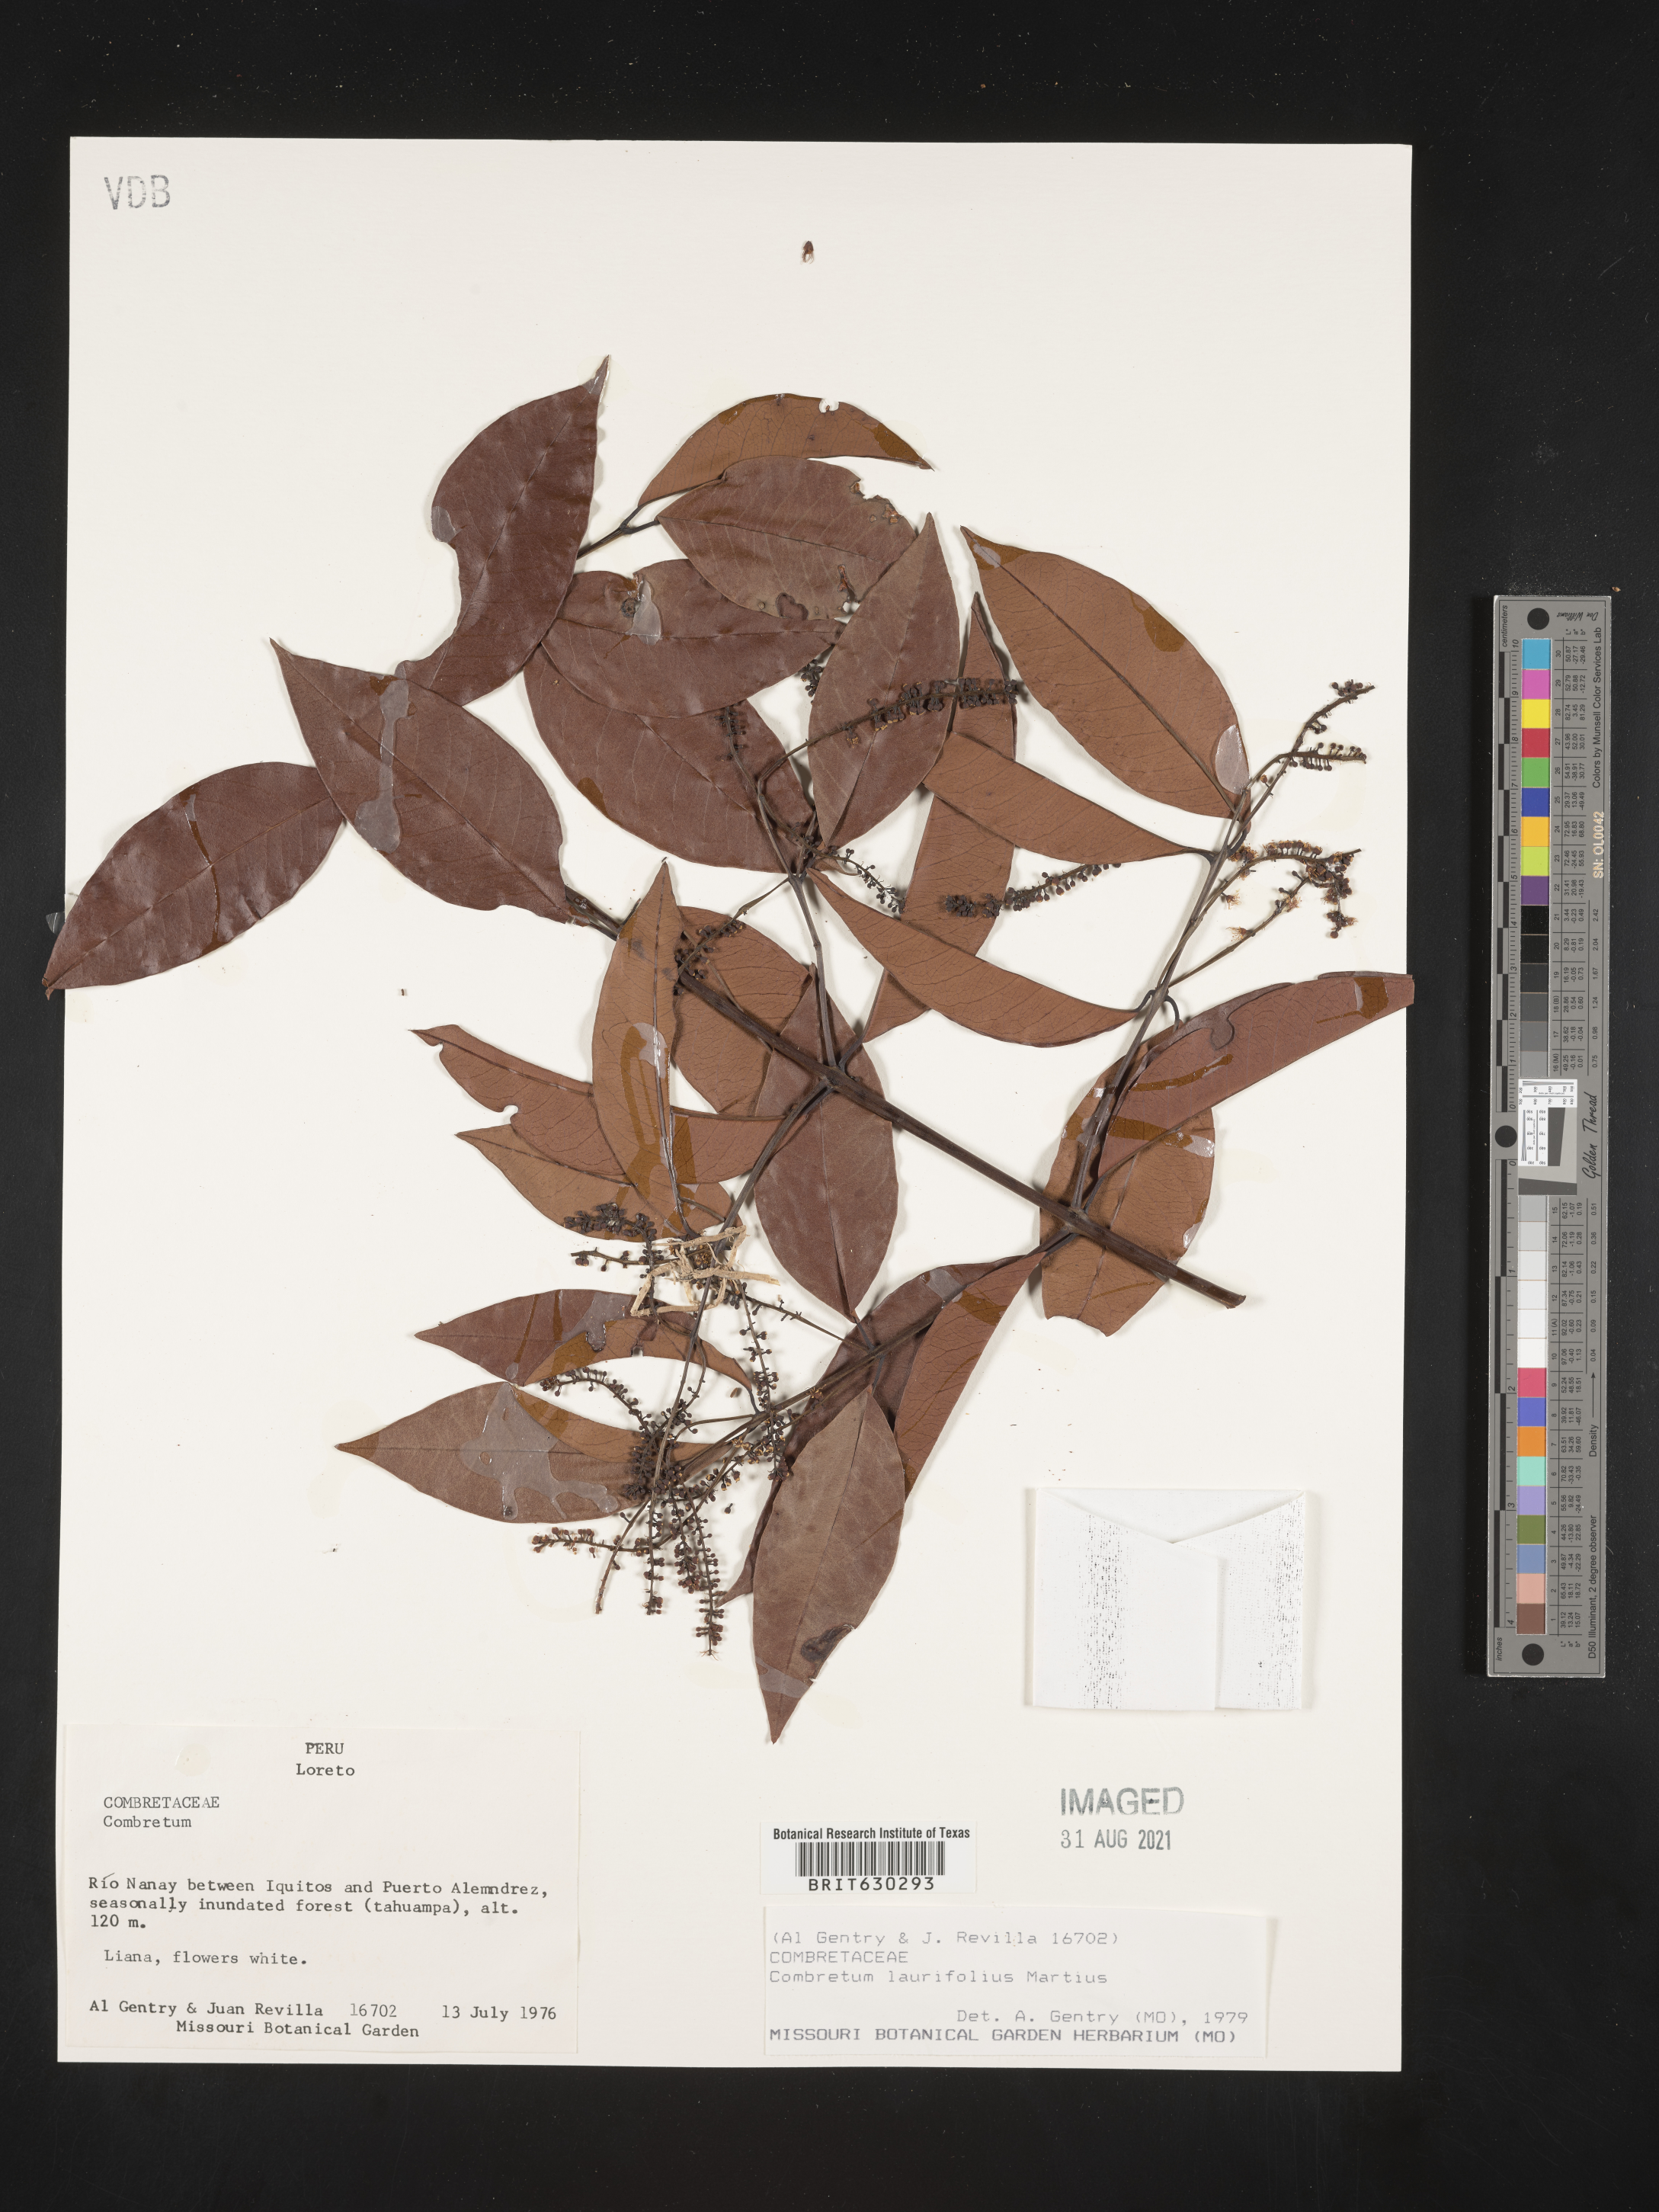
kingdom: Plantae
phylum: Tracheophyta
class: Magnoliopsida
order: Myrtales
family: Combretaceae
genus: Combretum
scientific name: Combretum laurifolium
